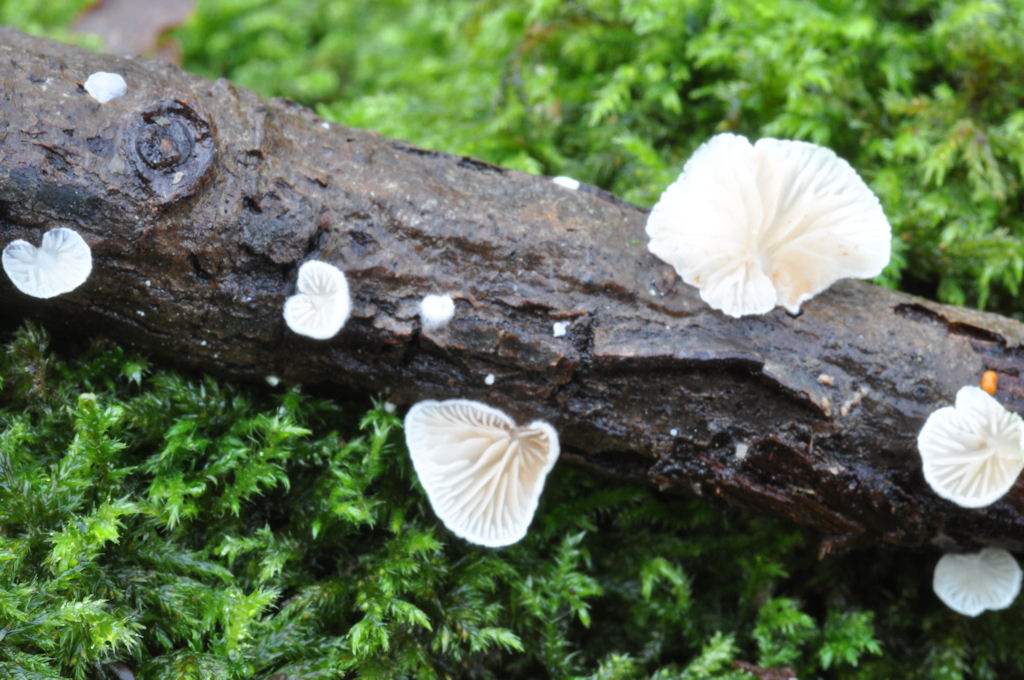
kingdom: Fungi
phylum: Basidiomycota
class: Agaricomycetes
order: Agaricales
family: Crepidotaceae
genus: Crepidotus
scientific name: Crepidotus cesatii
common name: almindelig muslingesvamp
